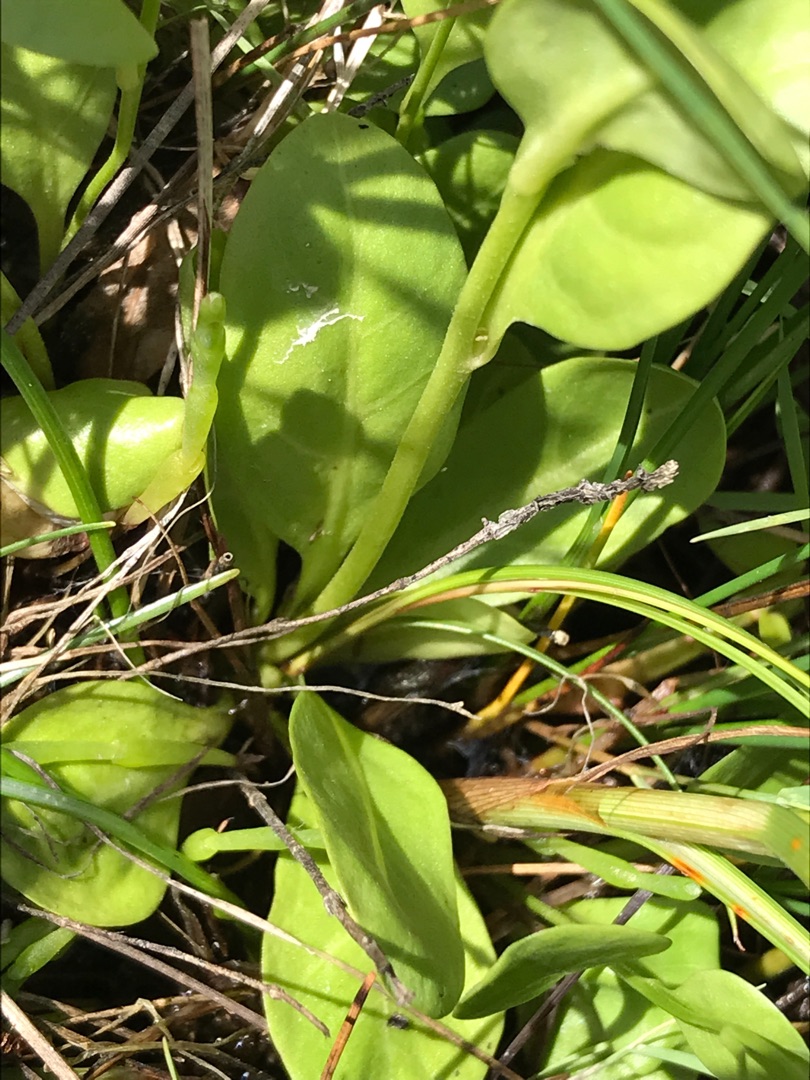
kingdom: Plantae
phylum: Tracheophyta
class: Magnoliopsida
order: Ericales
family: Primulaceae
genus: Samolus
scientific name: Samolus valerandi
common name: Samel
